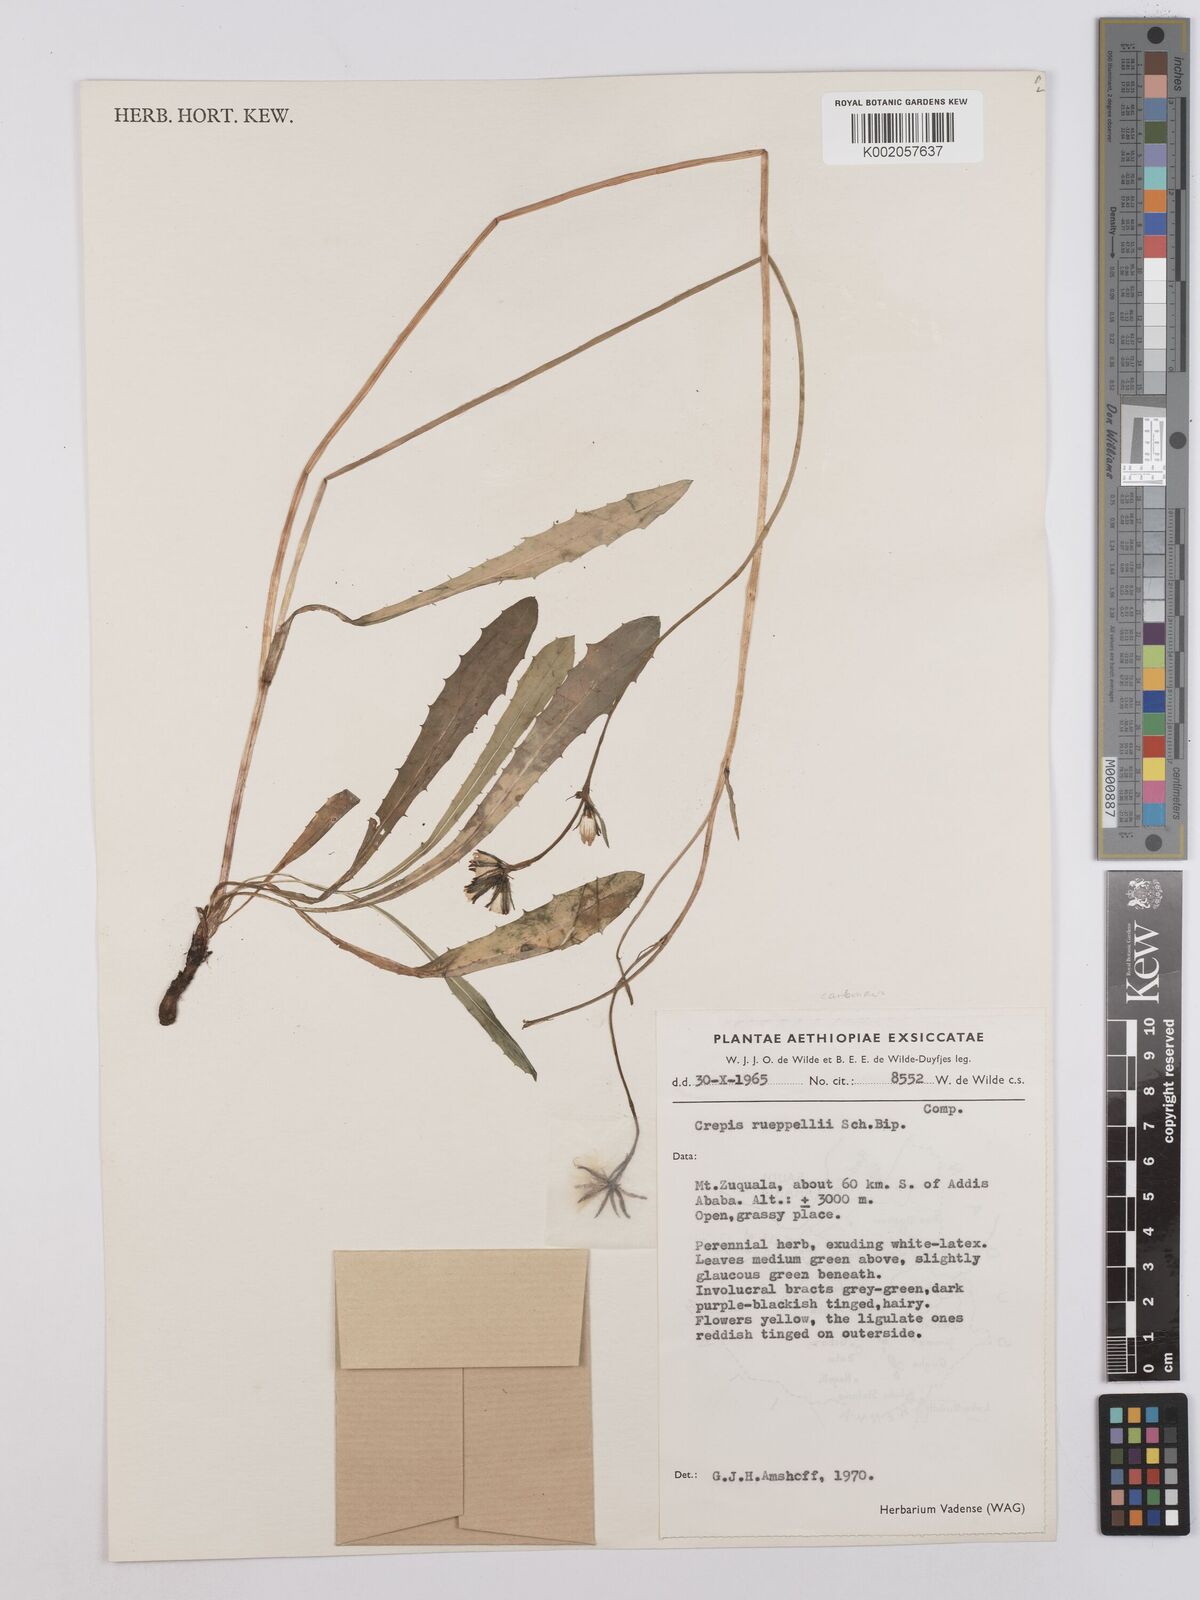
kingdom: Plantae
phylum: Tracheophyta
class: Magnoliopsida
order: Asterales
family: Asteraceae
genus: Crepis
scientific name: Crepis carbonaria
